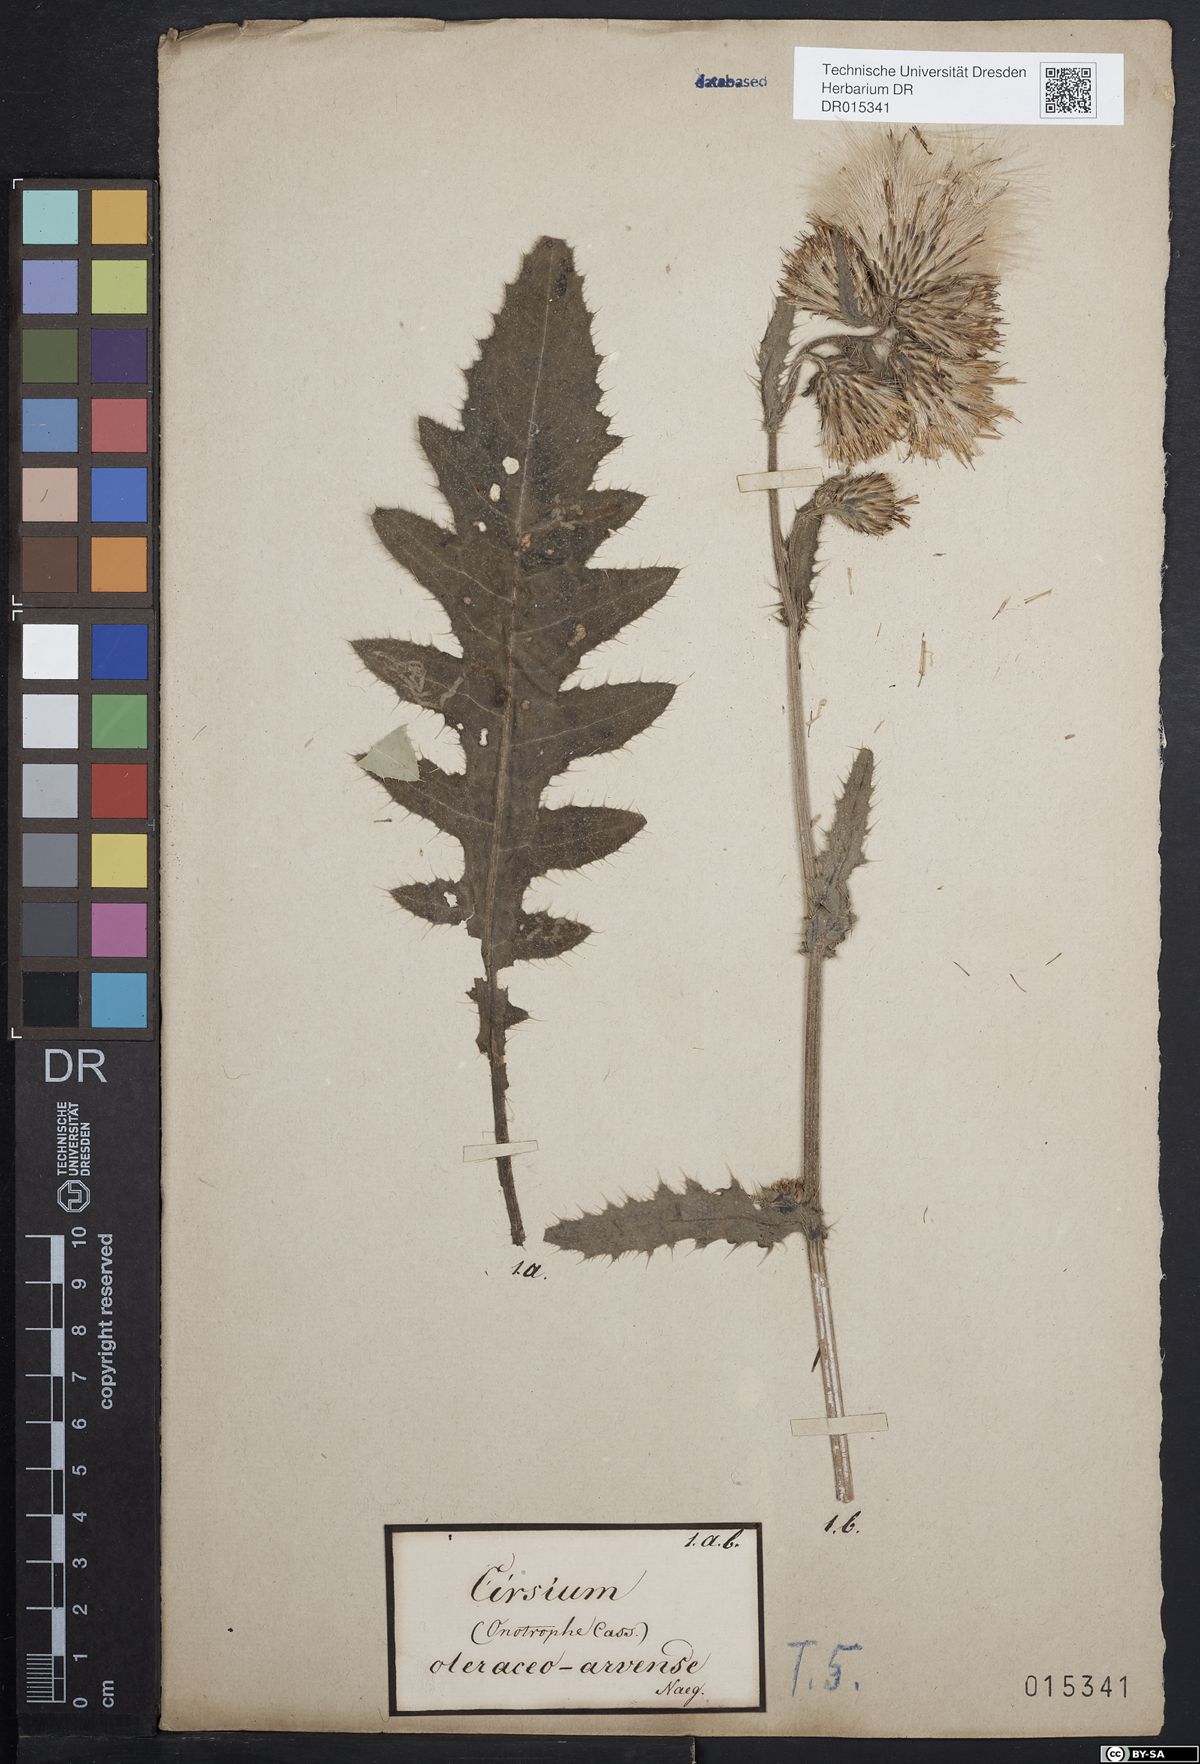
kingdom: Plantae
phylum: Tracheophyta
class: Magnoliopsida
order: Asterales
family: Asteraceae
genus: Cirsium
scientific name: Cirsium sessile
